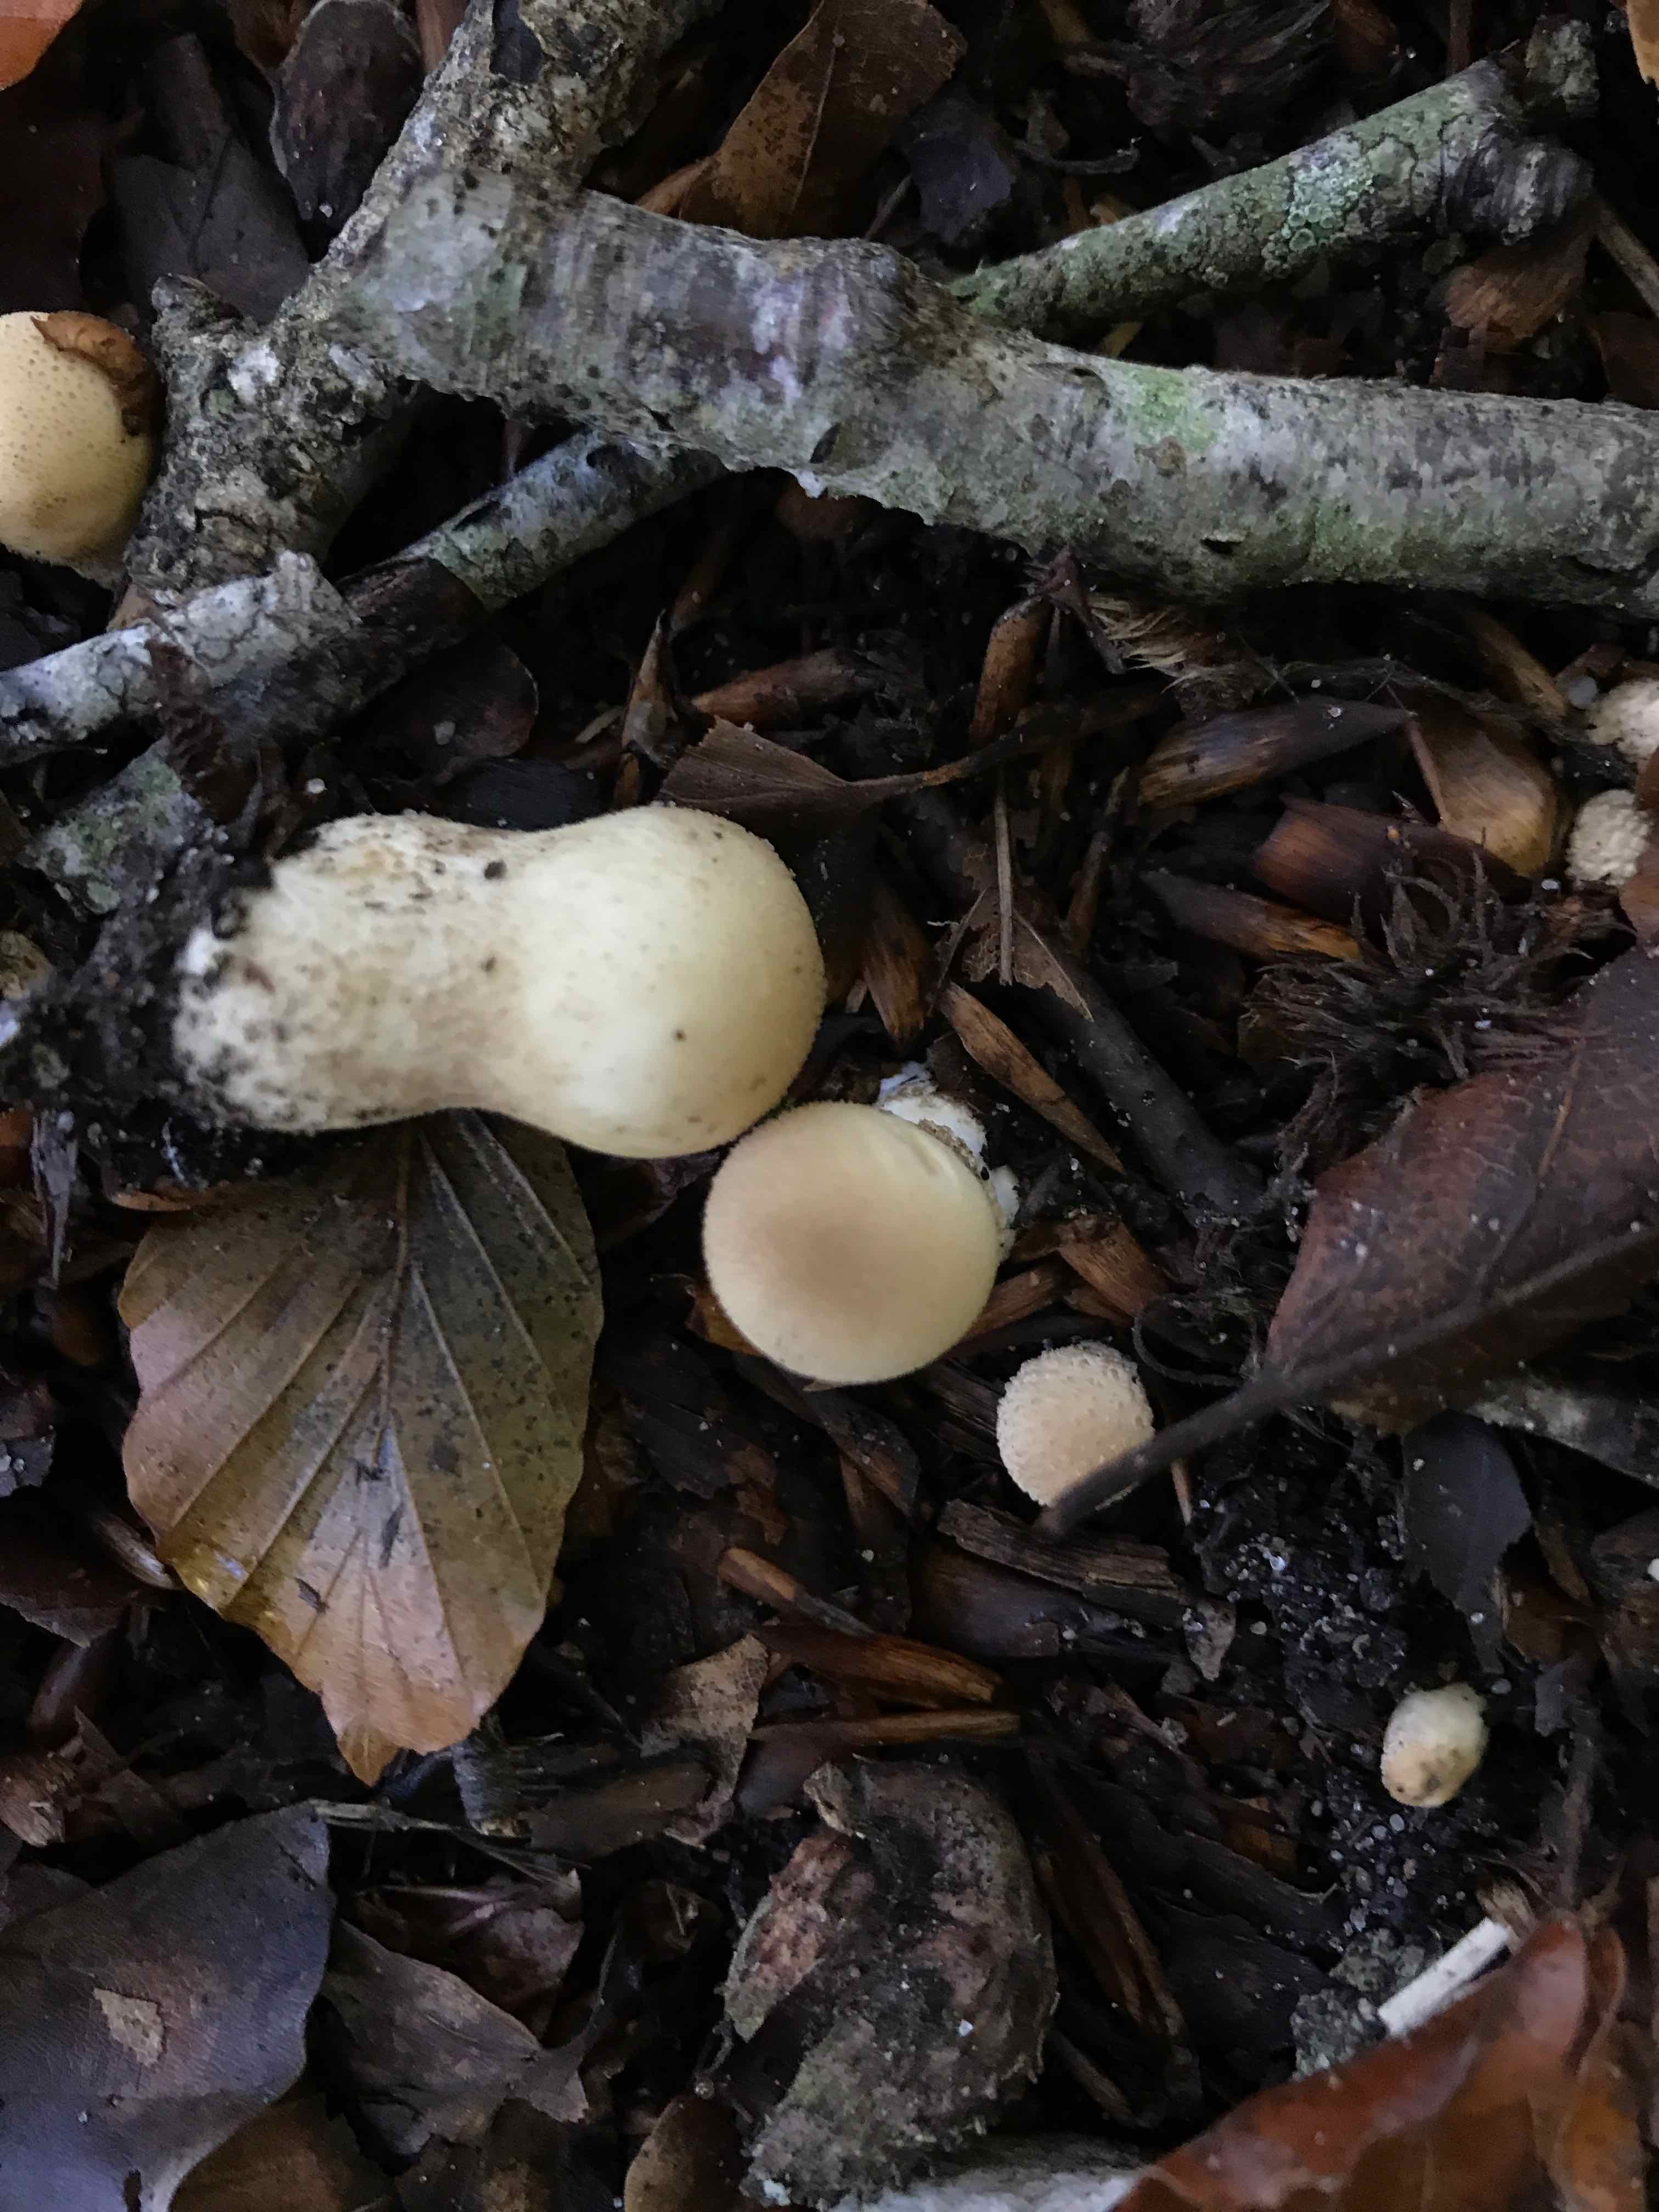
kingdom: Fungi
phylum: Basidiomycota
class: Agaricomycetes
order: Agaricales
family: Lycoperdaceae
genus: Apioperdon
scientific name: Apioperdon pyriforme
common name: pære-støvbold
